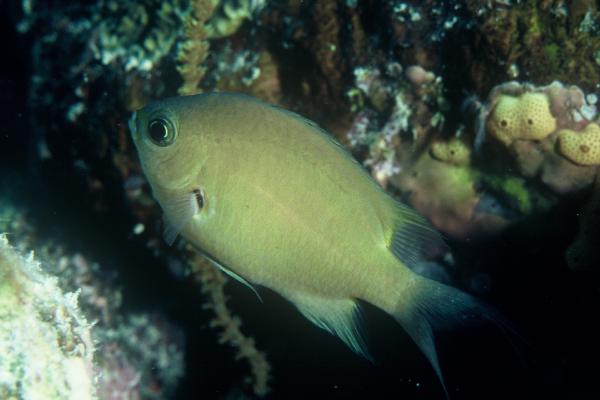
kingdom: Animalia
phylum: Chordata
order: Perciformes
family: Pomacentridae
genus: Chromis
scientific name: Chromis xutha
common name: Buff chromis
